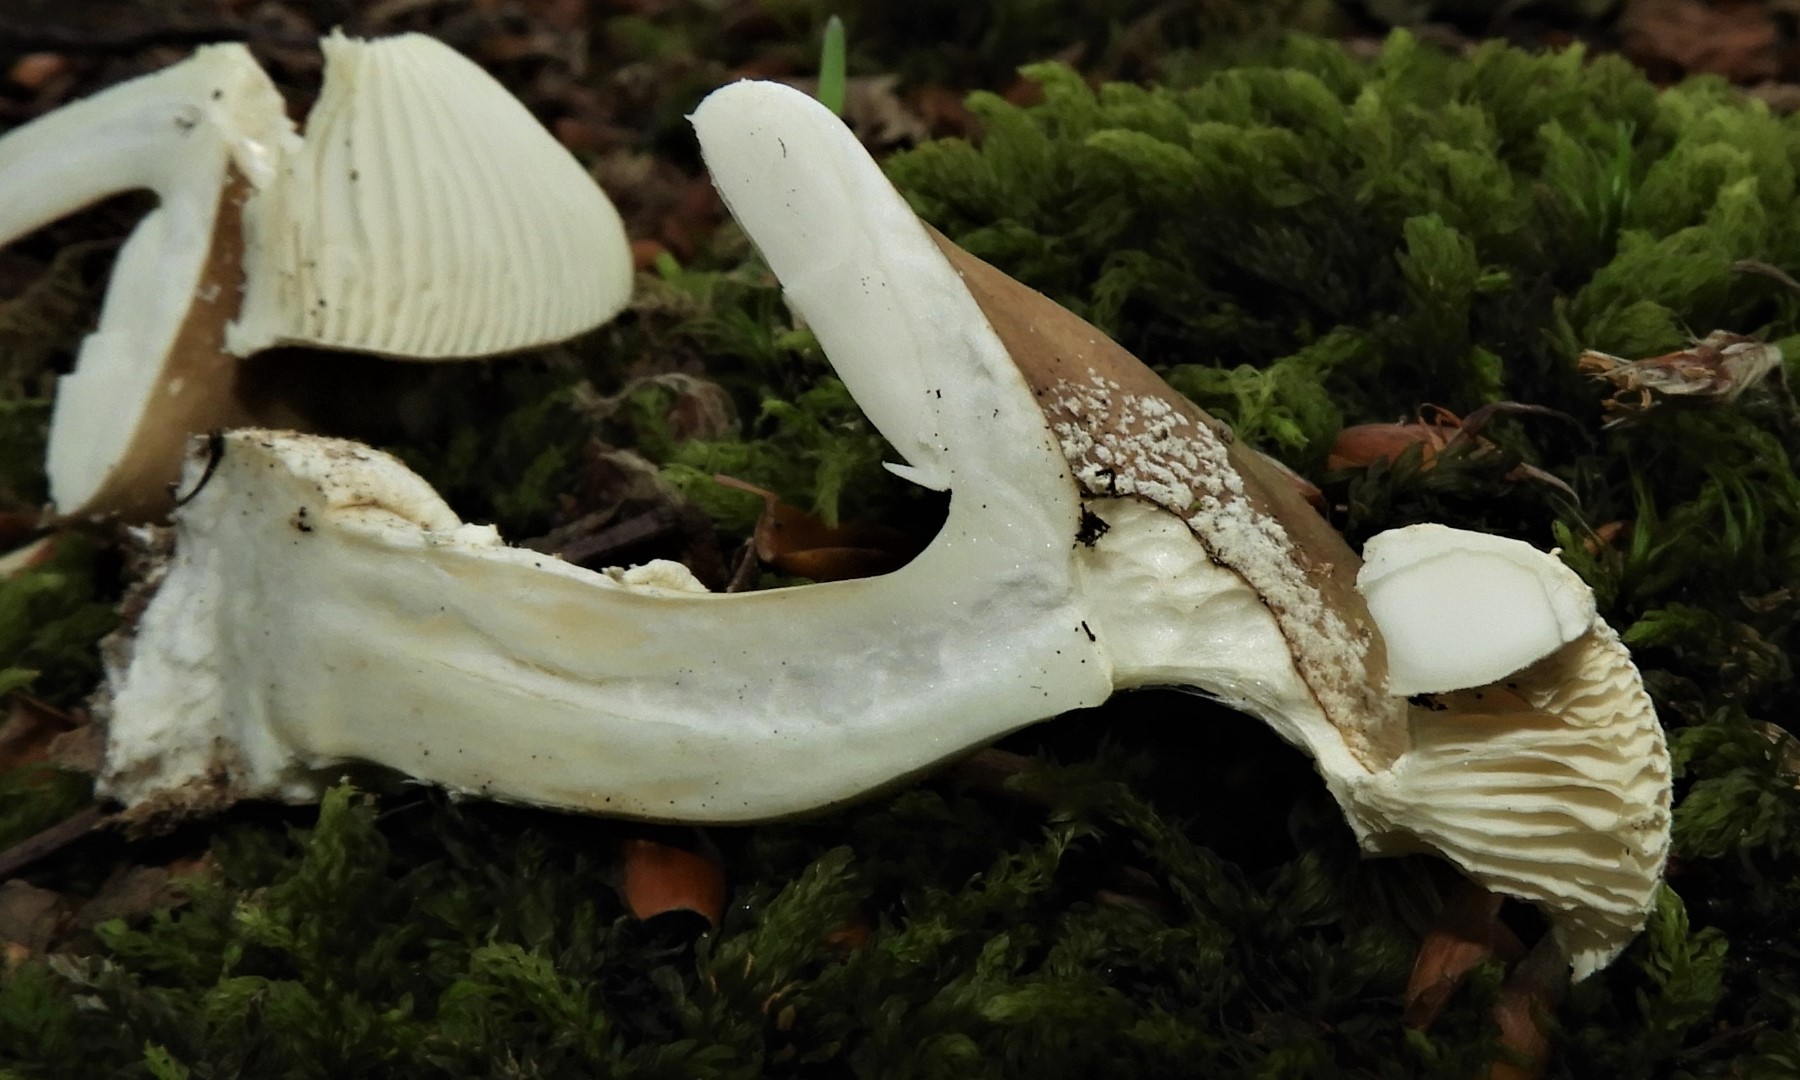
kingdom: Fungi
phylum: Basidiomycota
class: Agaricomycetes
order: Agaricales
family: Amanitaceae
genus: Amanita
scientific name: Amanita pantherina
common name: panter-fluesvamp
